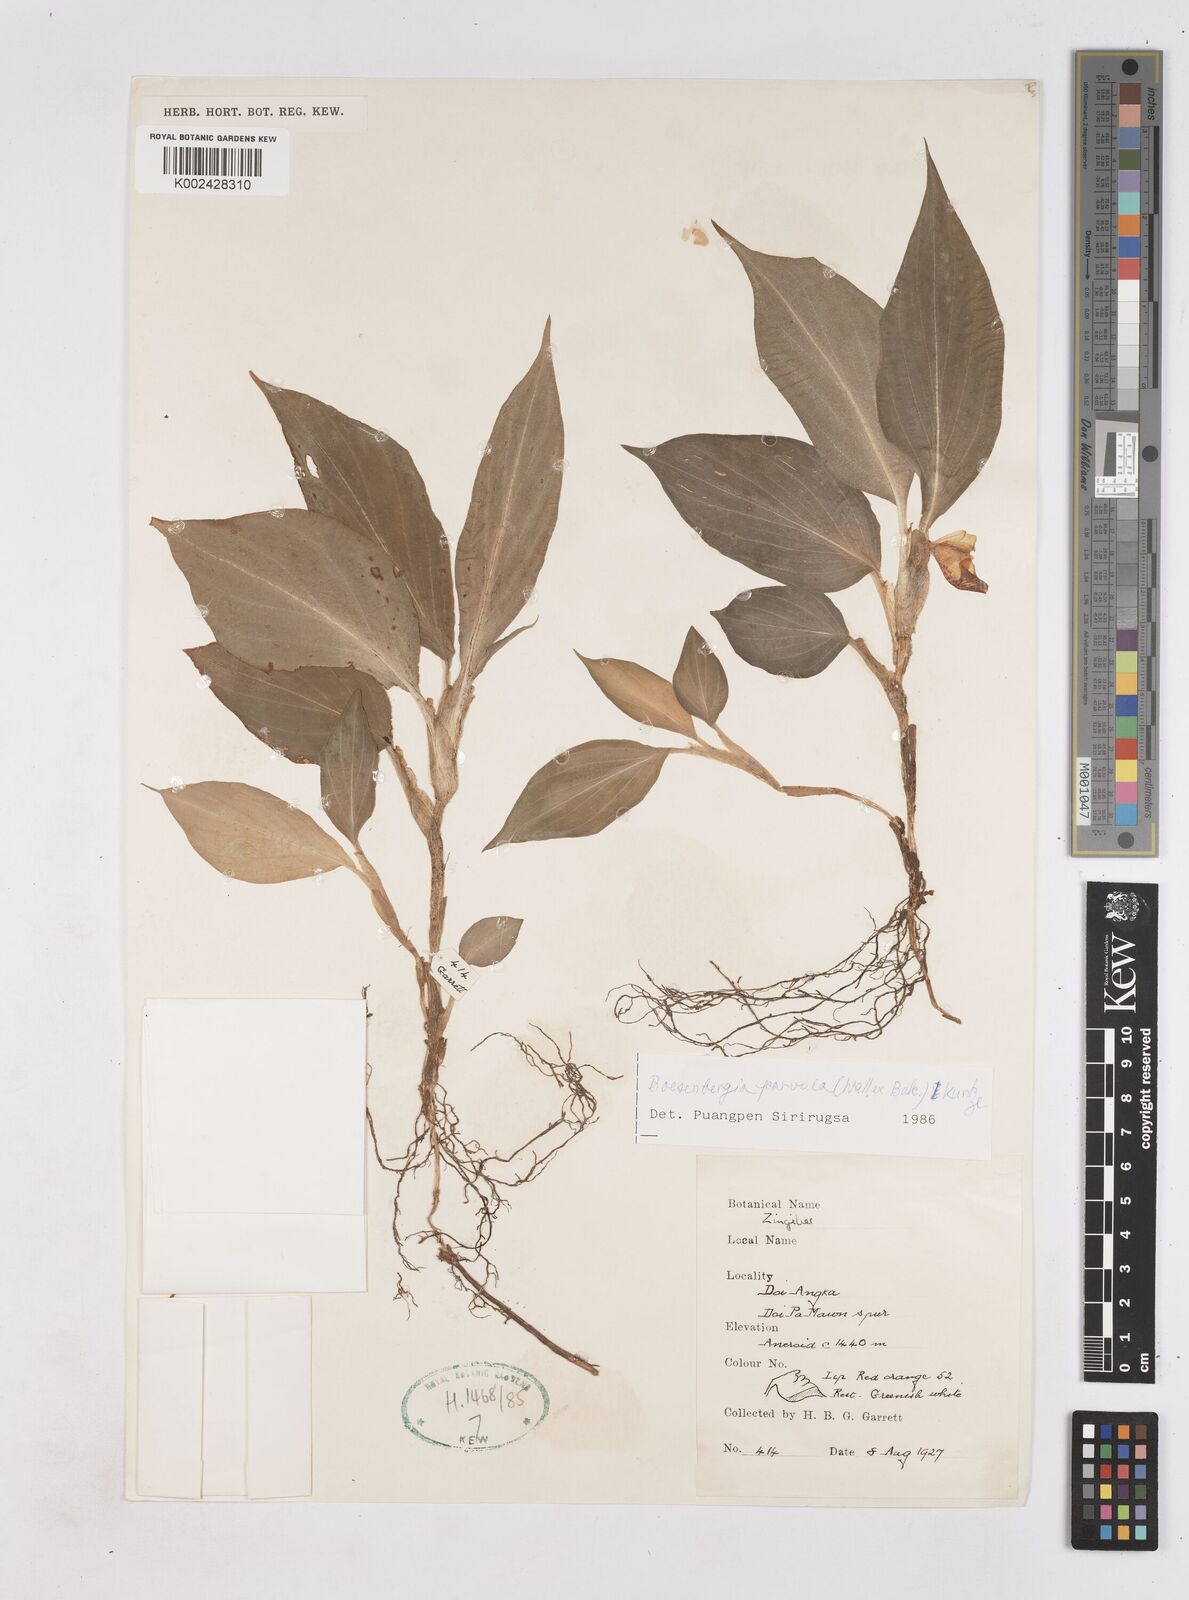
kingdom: Plantae
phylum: Tracheophyta
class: Liliopsida
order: Zingiberales
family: Zingiberaceae
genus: Boesenbergia
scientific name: Boesenbergia parvula
